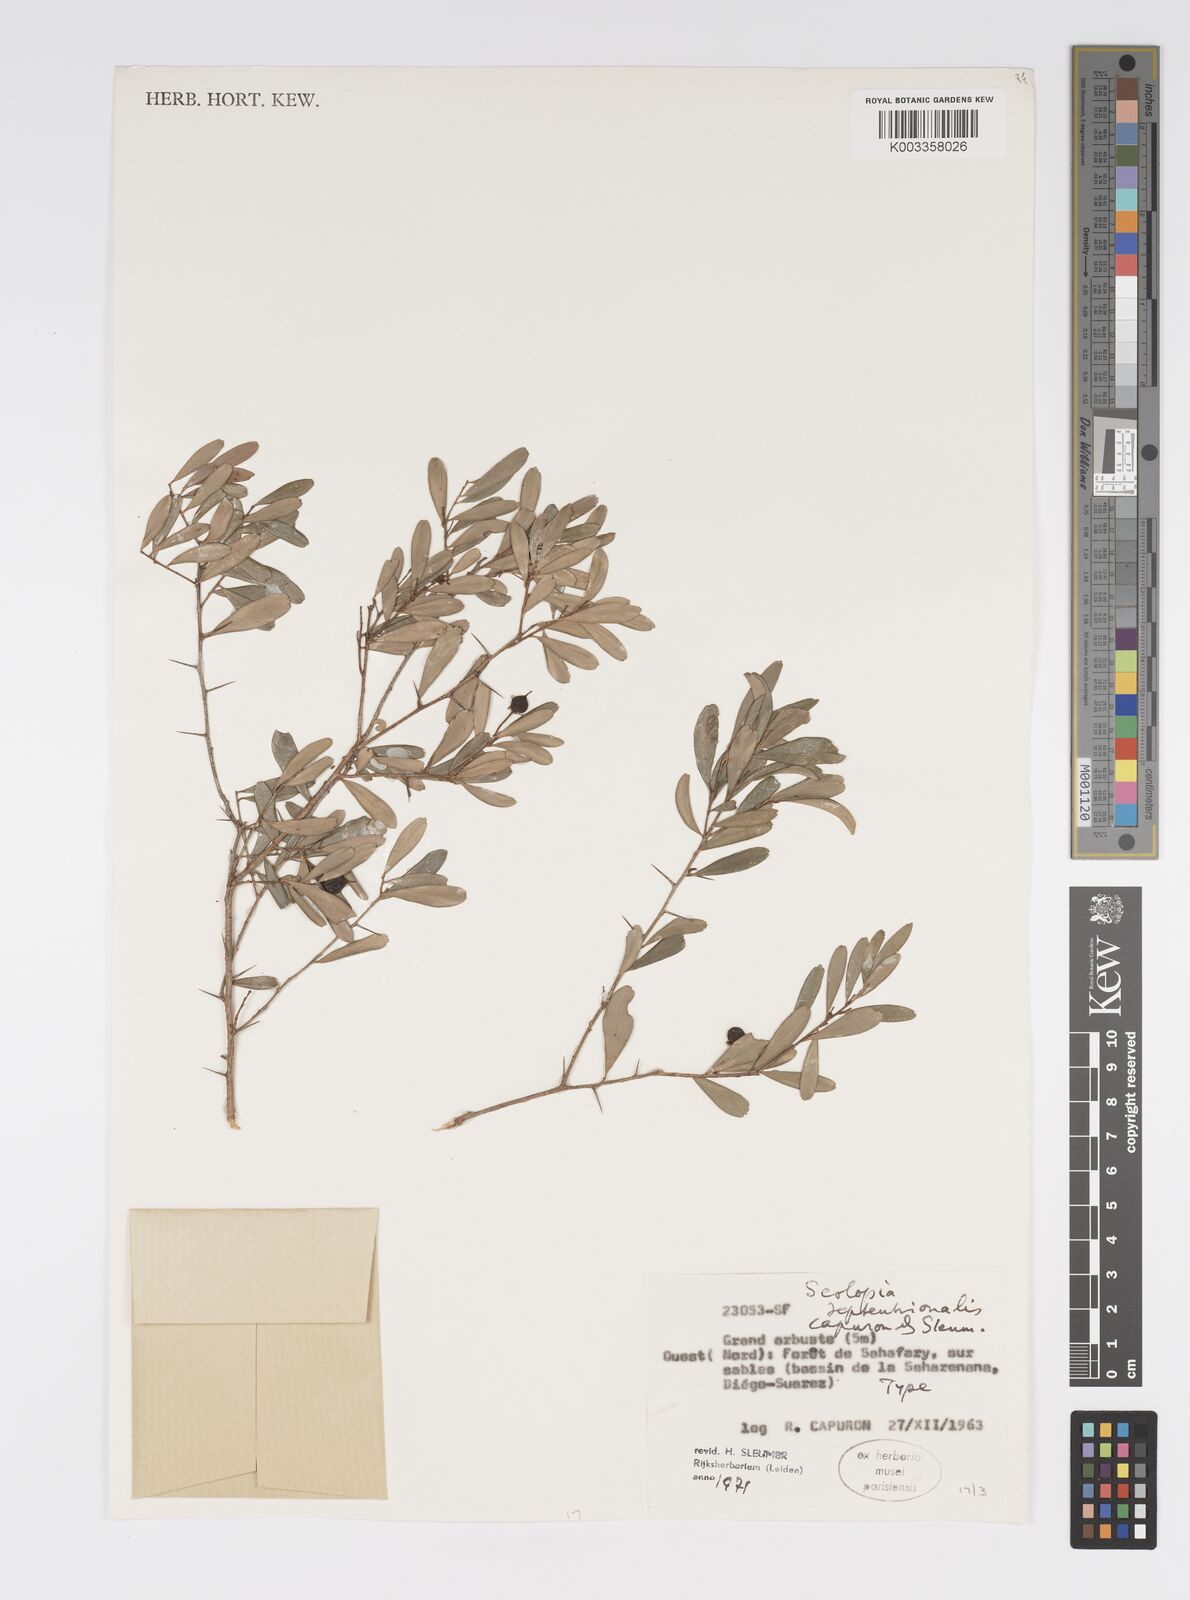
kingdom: Plantae
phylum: Tracheophyta
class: Magnoliopsida
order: Malpighiales
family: Salicaceae
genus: Scolopia
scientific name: Scolopia septentrionalis
